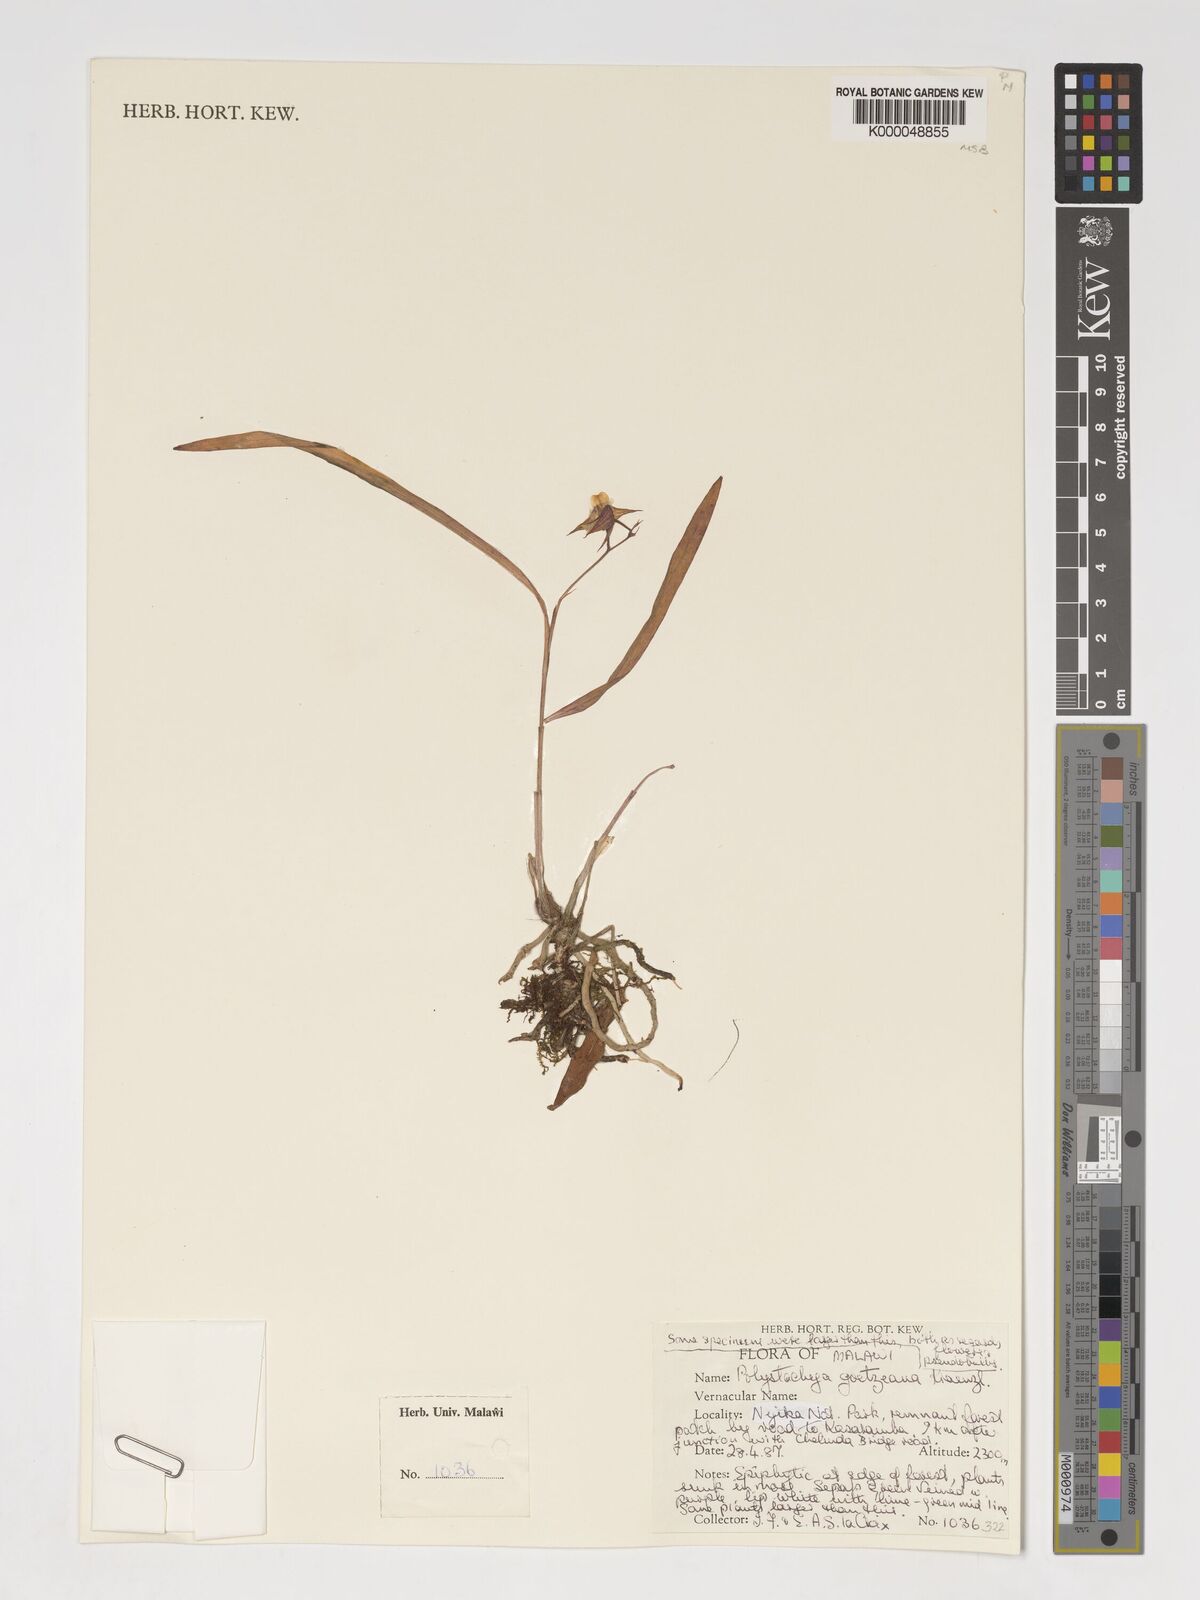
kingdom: Plantae
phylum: Tracheophyta
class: Liliopsida
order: Asparagales
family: Orchidaceae
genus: Polystachya
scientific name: Polystachya goetzeana
